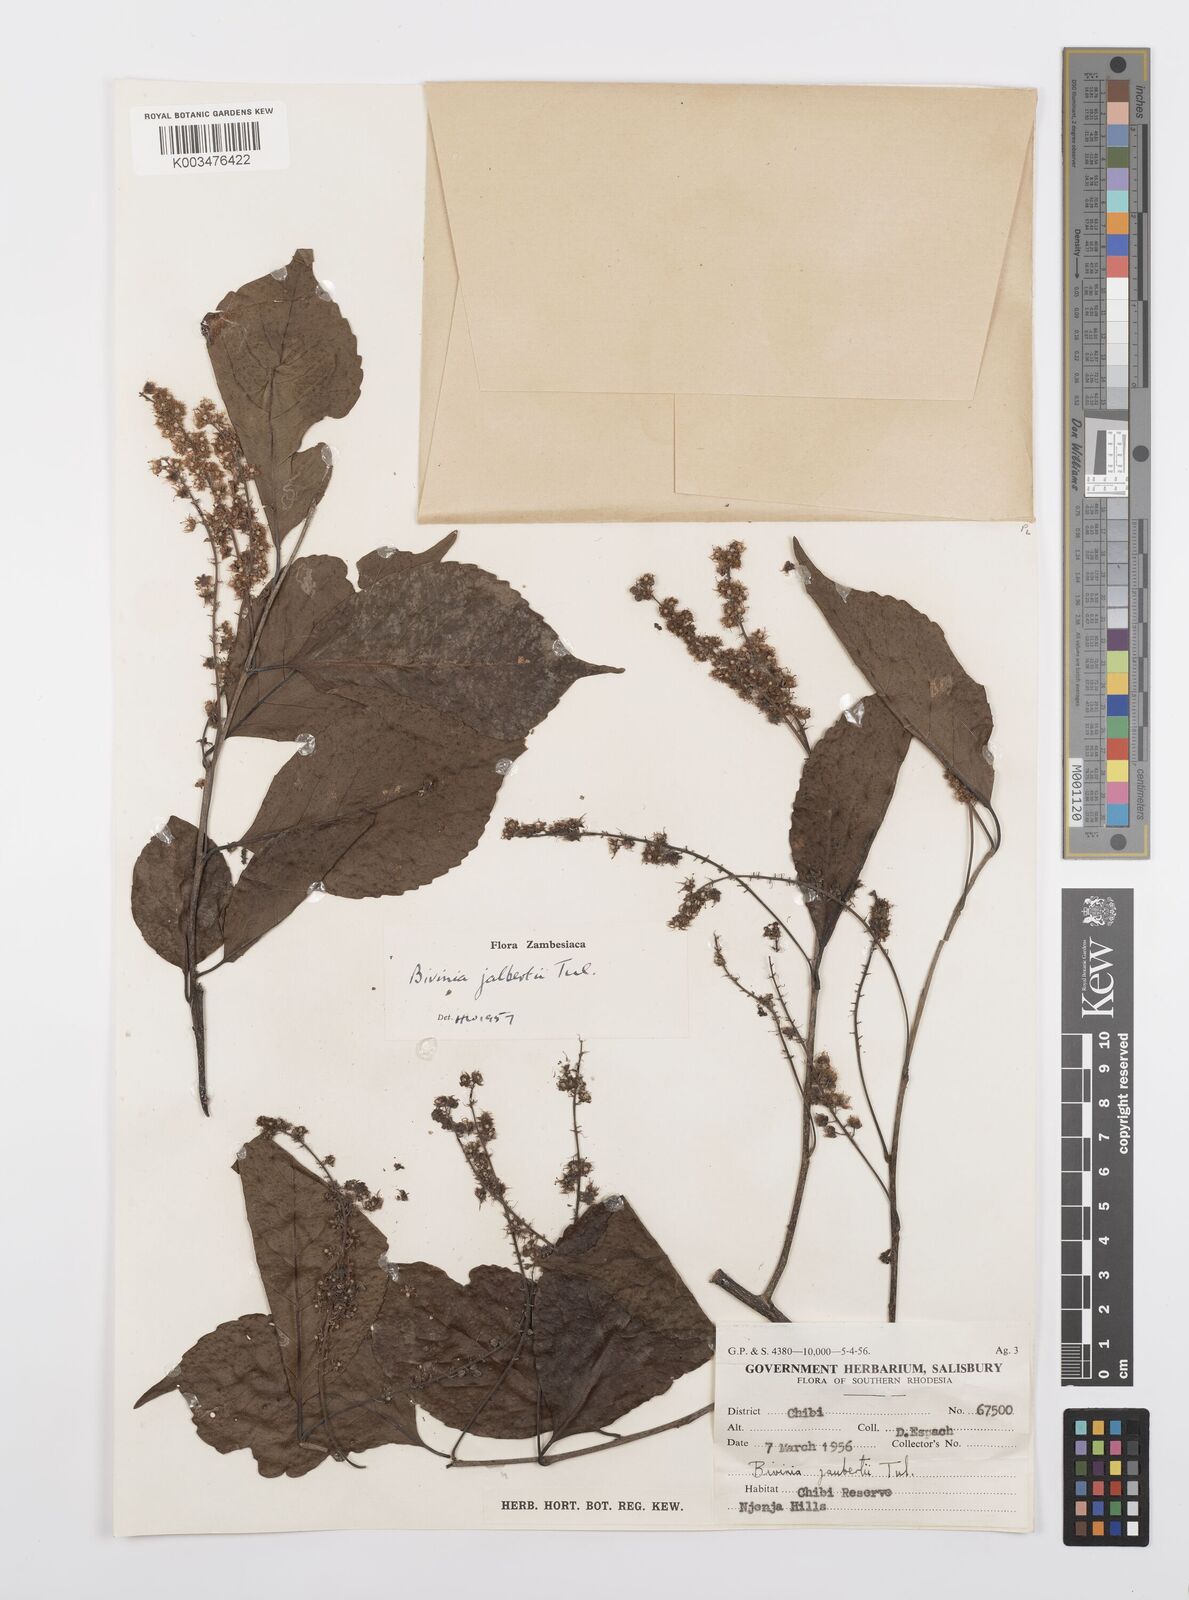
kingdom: Plantae
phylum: Tracheophyta
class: Magnoliopsida
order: Malpighiales
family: Salicaceae
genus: Bivinia
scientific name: Bivinia jalbertii
